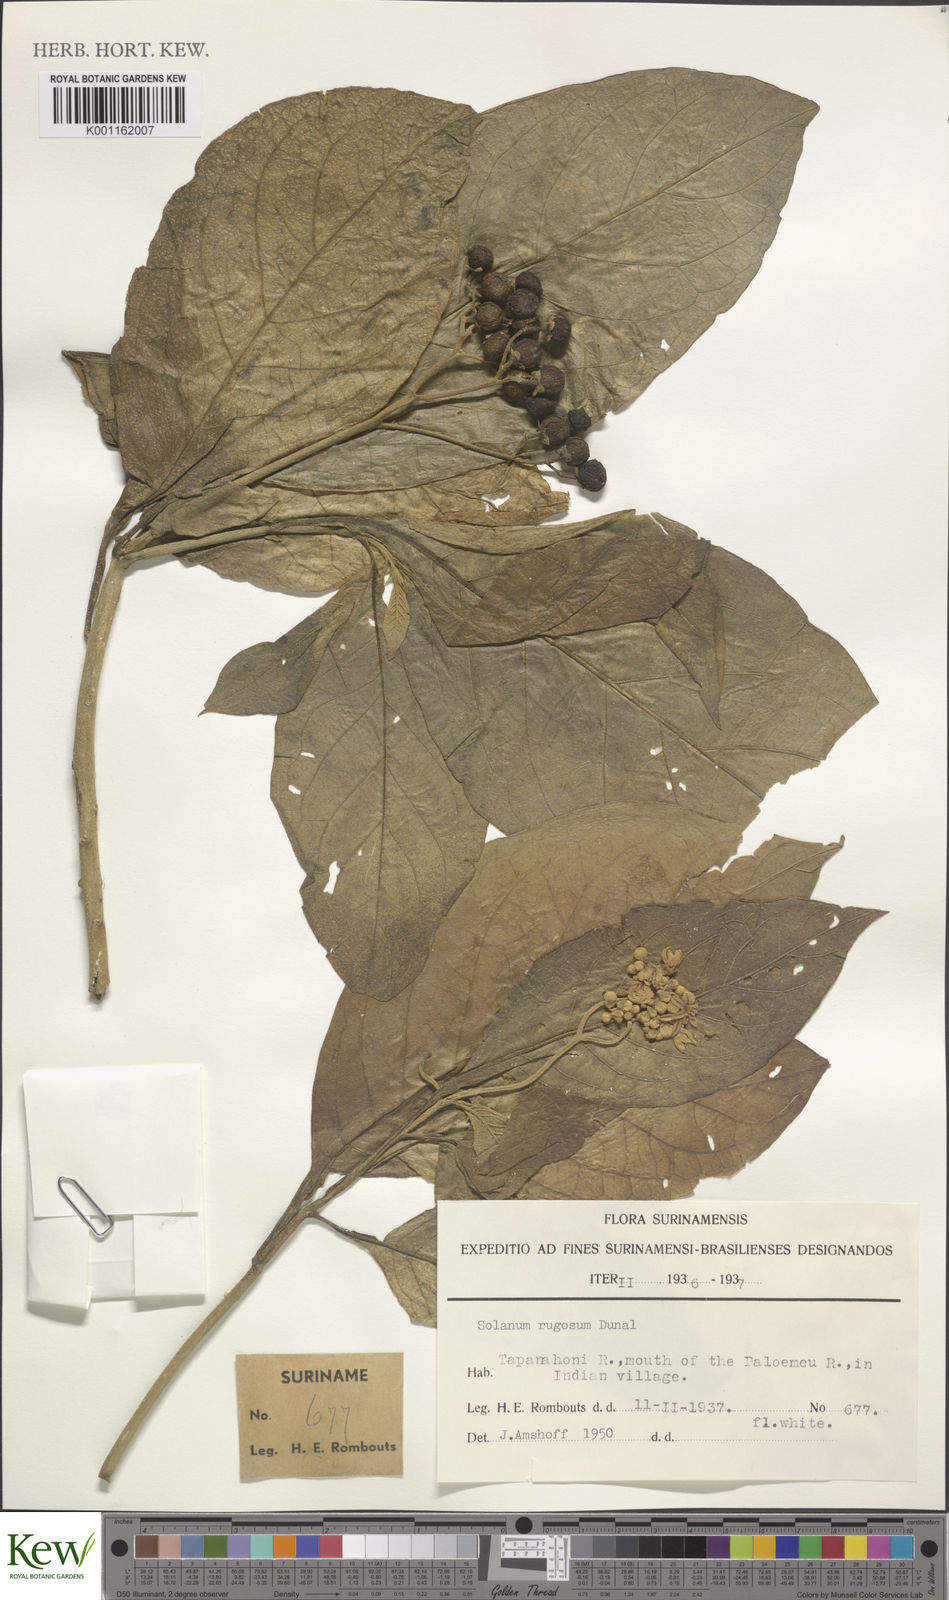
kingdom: Plantae
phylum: Tracheophyta
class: Magnoliopsida
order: Solanales
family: Solanaceae
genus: Solanum
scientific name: Solanum rugosum
